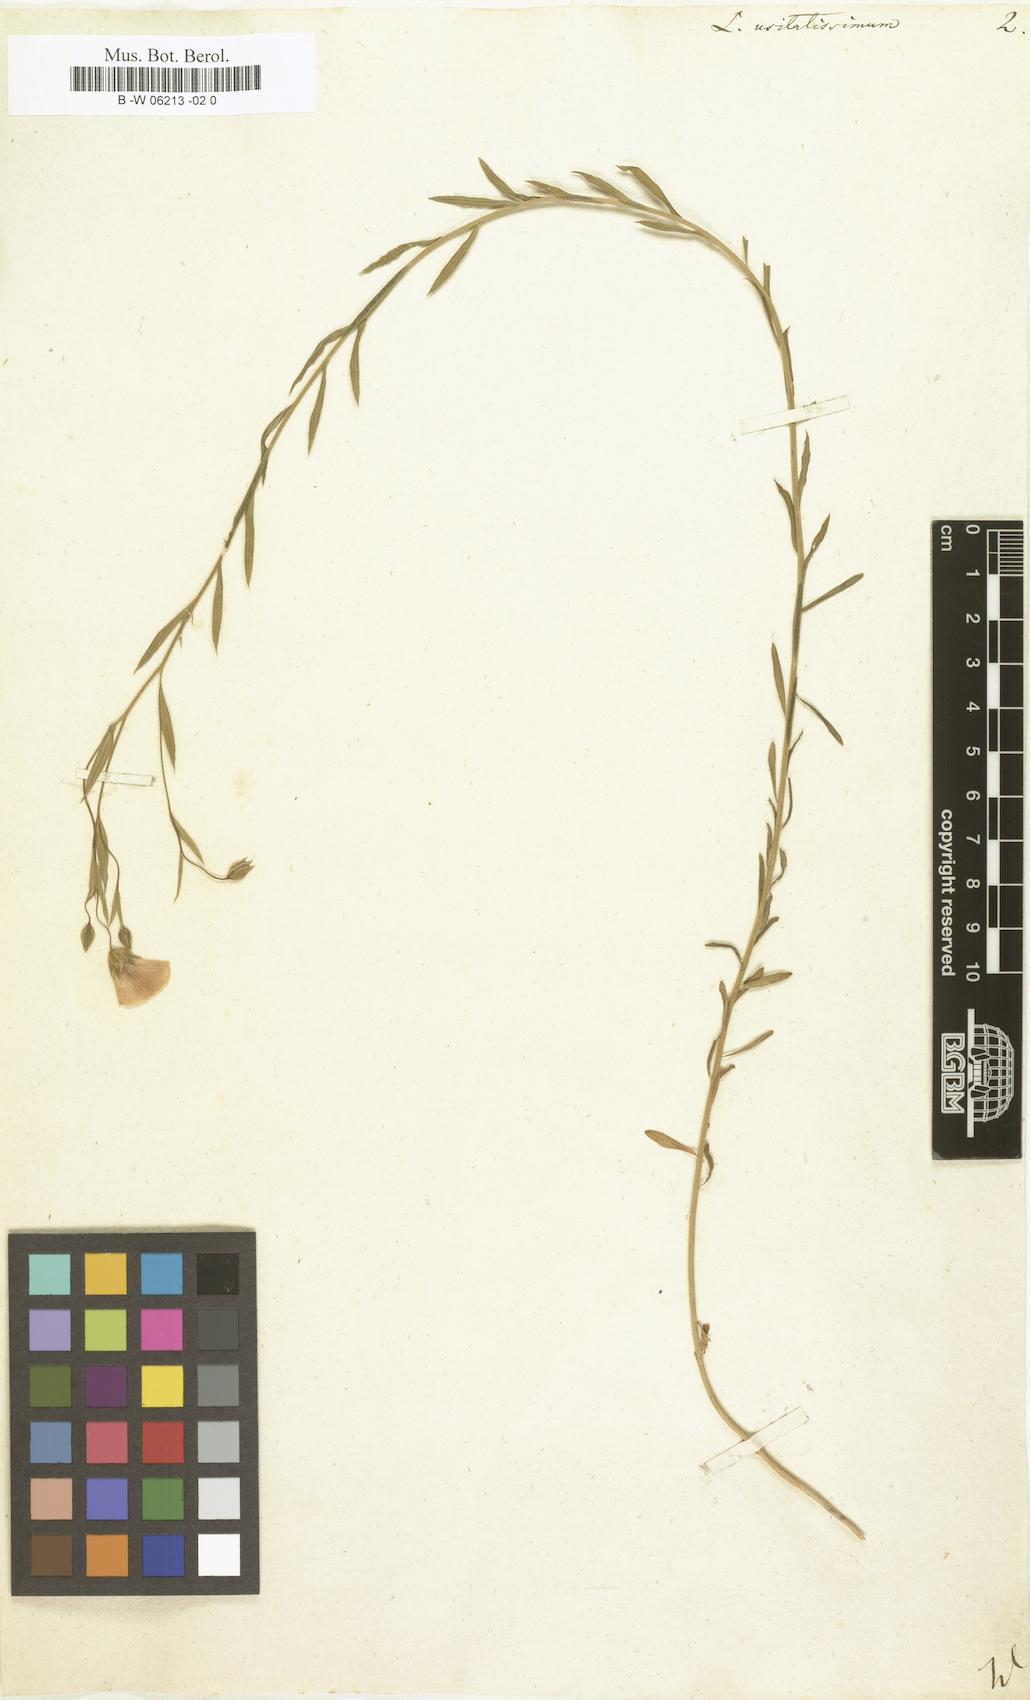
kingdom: Plantae
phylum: Tracheophyta
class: Magnoliopsida
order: Malpighiales
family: Linaceae
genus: Linum
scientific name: Linum usitatissimum
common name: Flax
